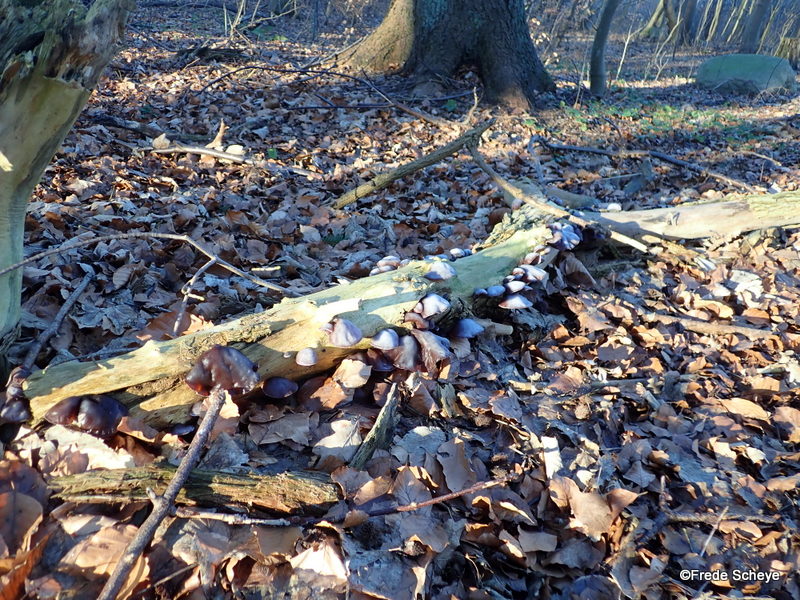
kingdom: Fungi
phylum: Basidiomycota
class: Agaricomycetes
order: Auriculariales
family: Auriculariaceae
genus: Auricularia
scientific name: Auricularia auricula-judae
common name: almindelig judasøre
